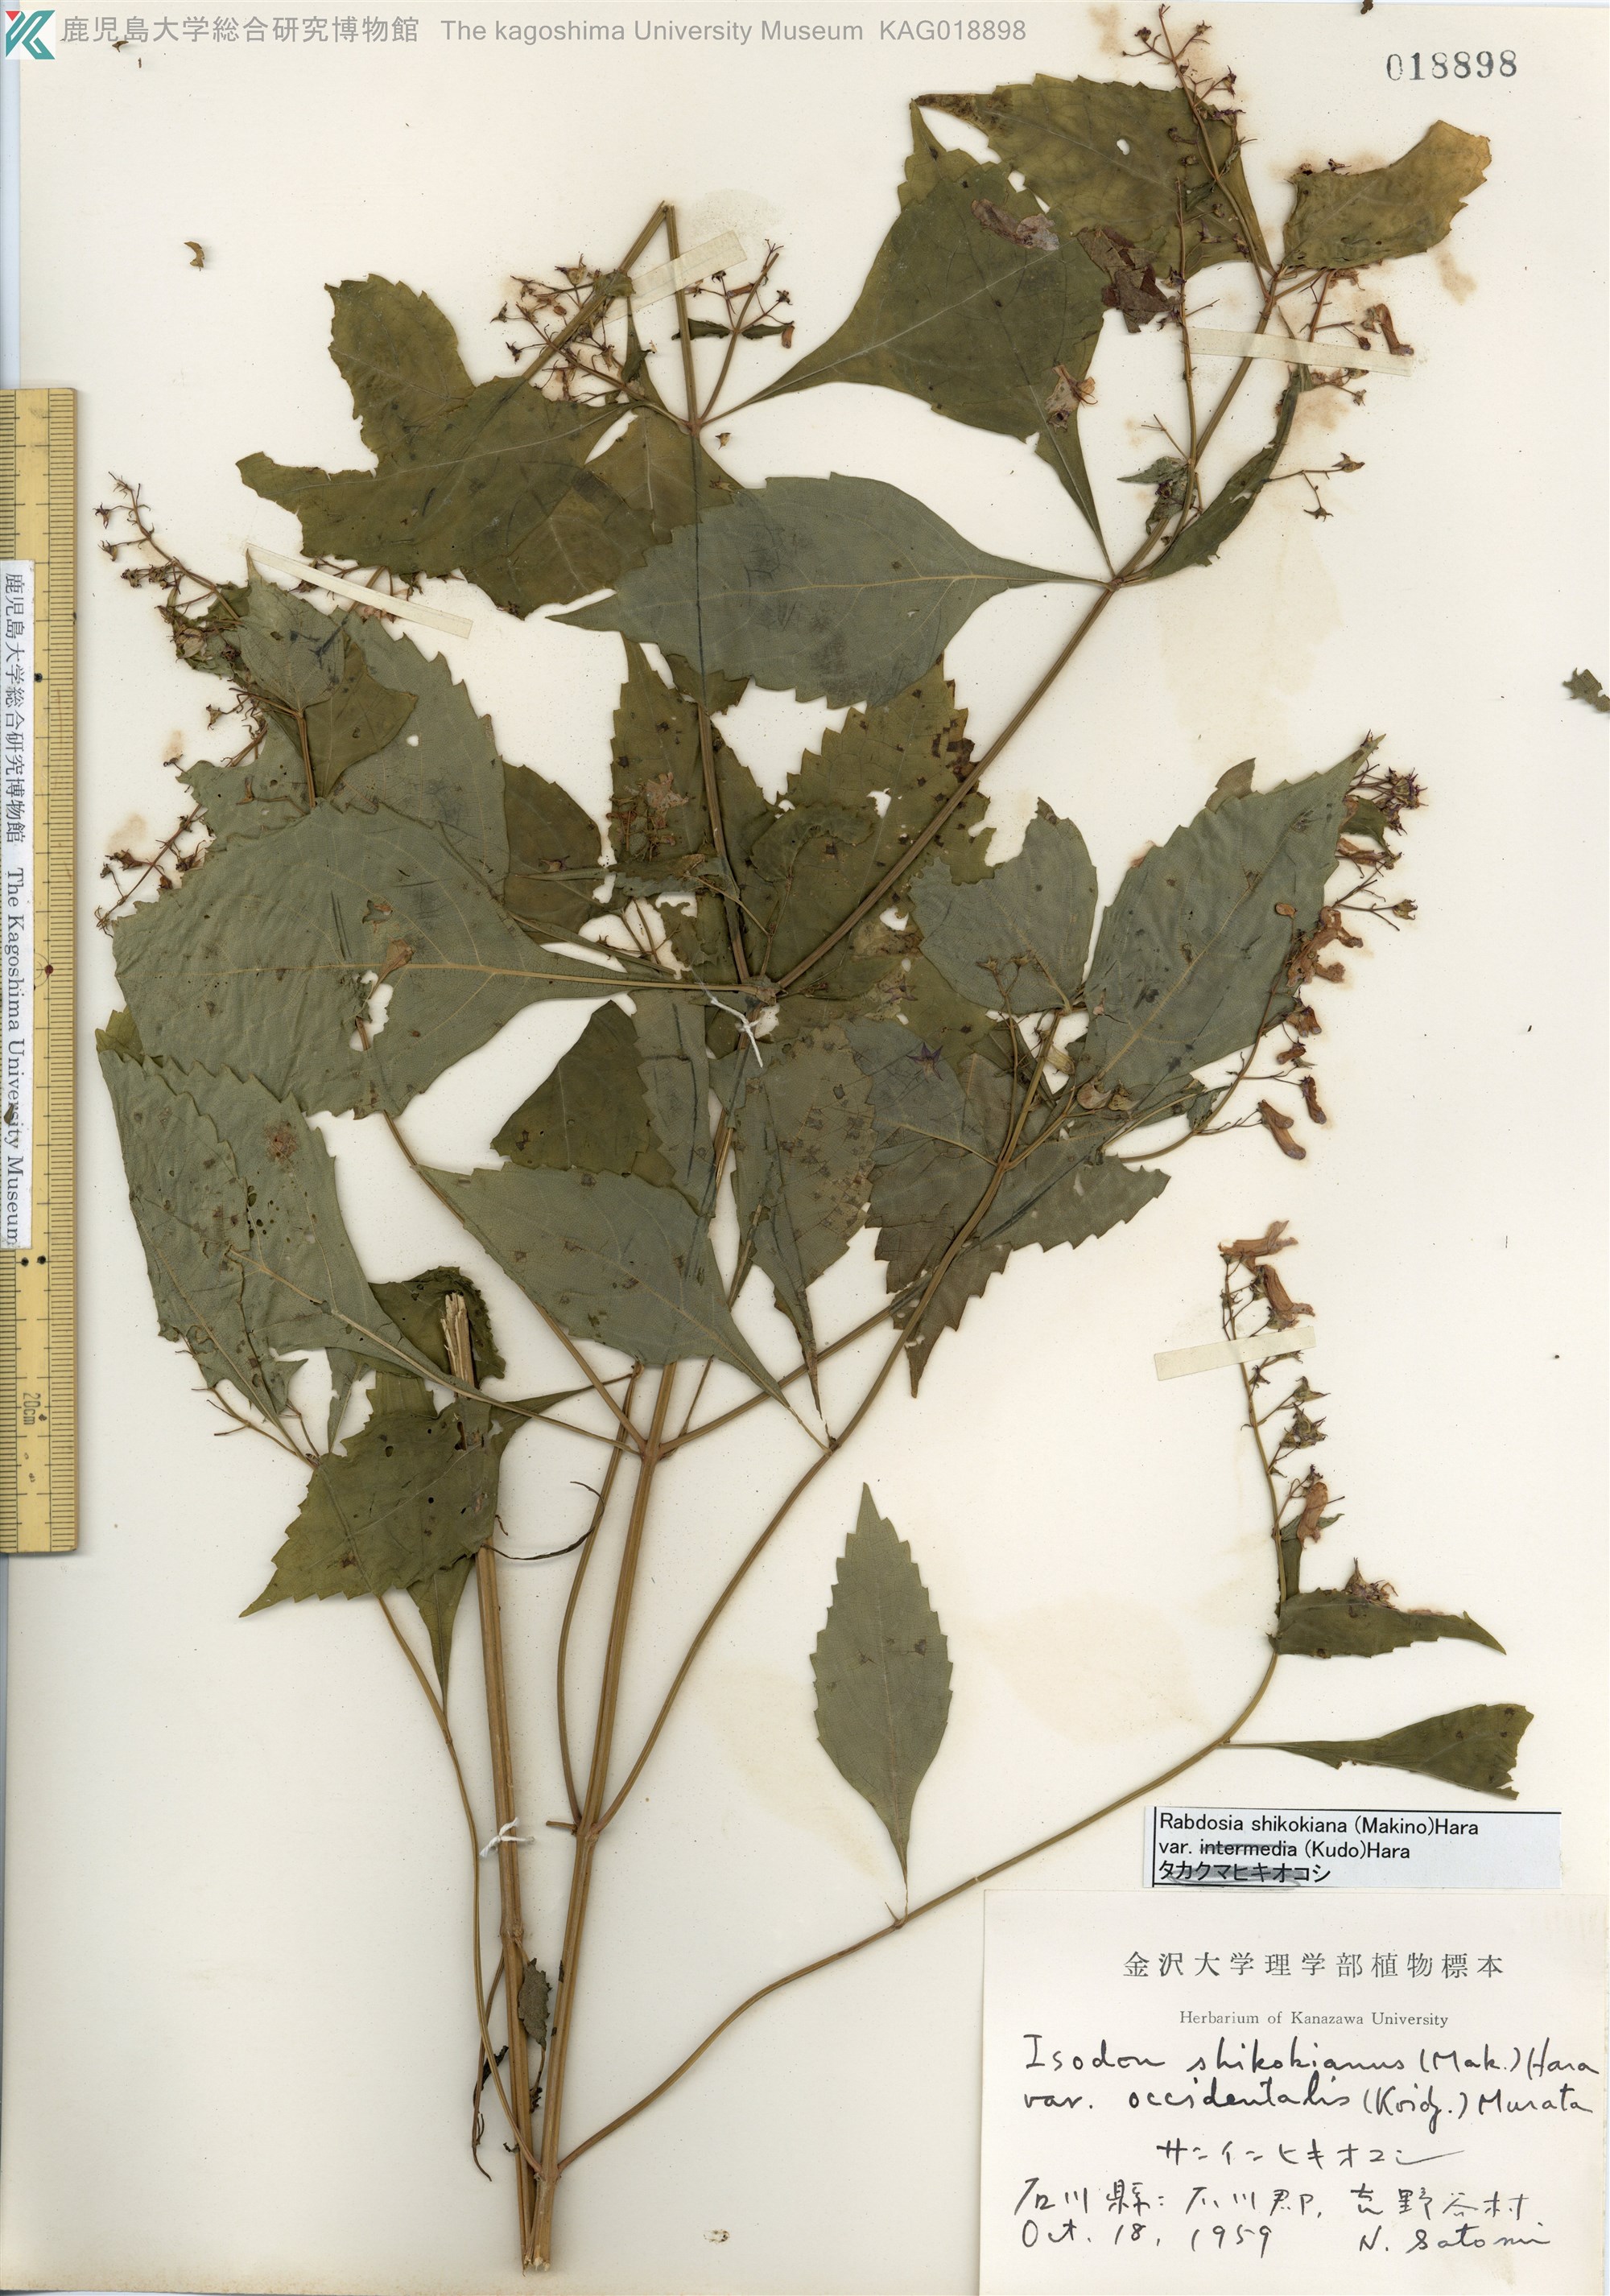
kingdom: Plantae
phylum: Tracheophyta
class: Magnoliopsida
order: Lamiales
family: Lamiaceae
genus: Isodon
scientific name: Isodon shikokianus
